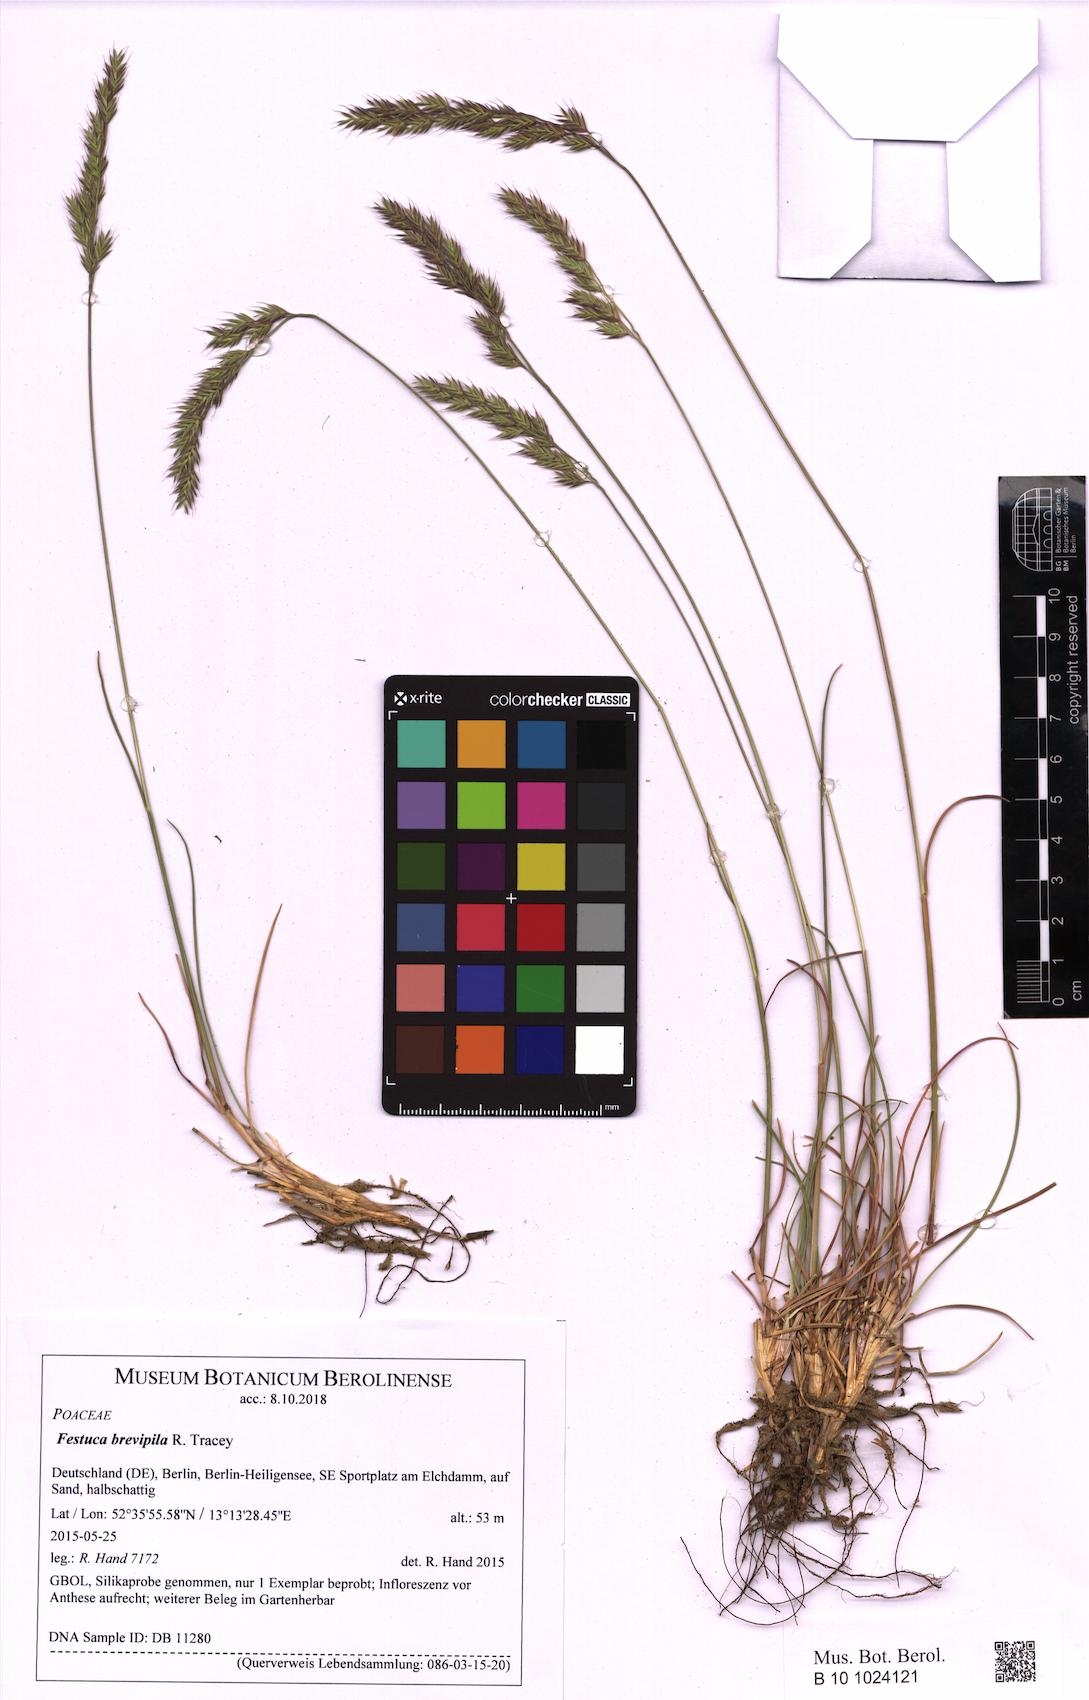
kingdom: Plantae
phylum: Tracheophyta
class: Liliopsida
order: Poales
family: Poaceae
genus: Festuca
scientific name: Festuca trachyphylla
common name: Hard fescue
